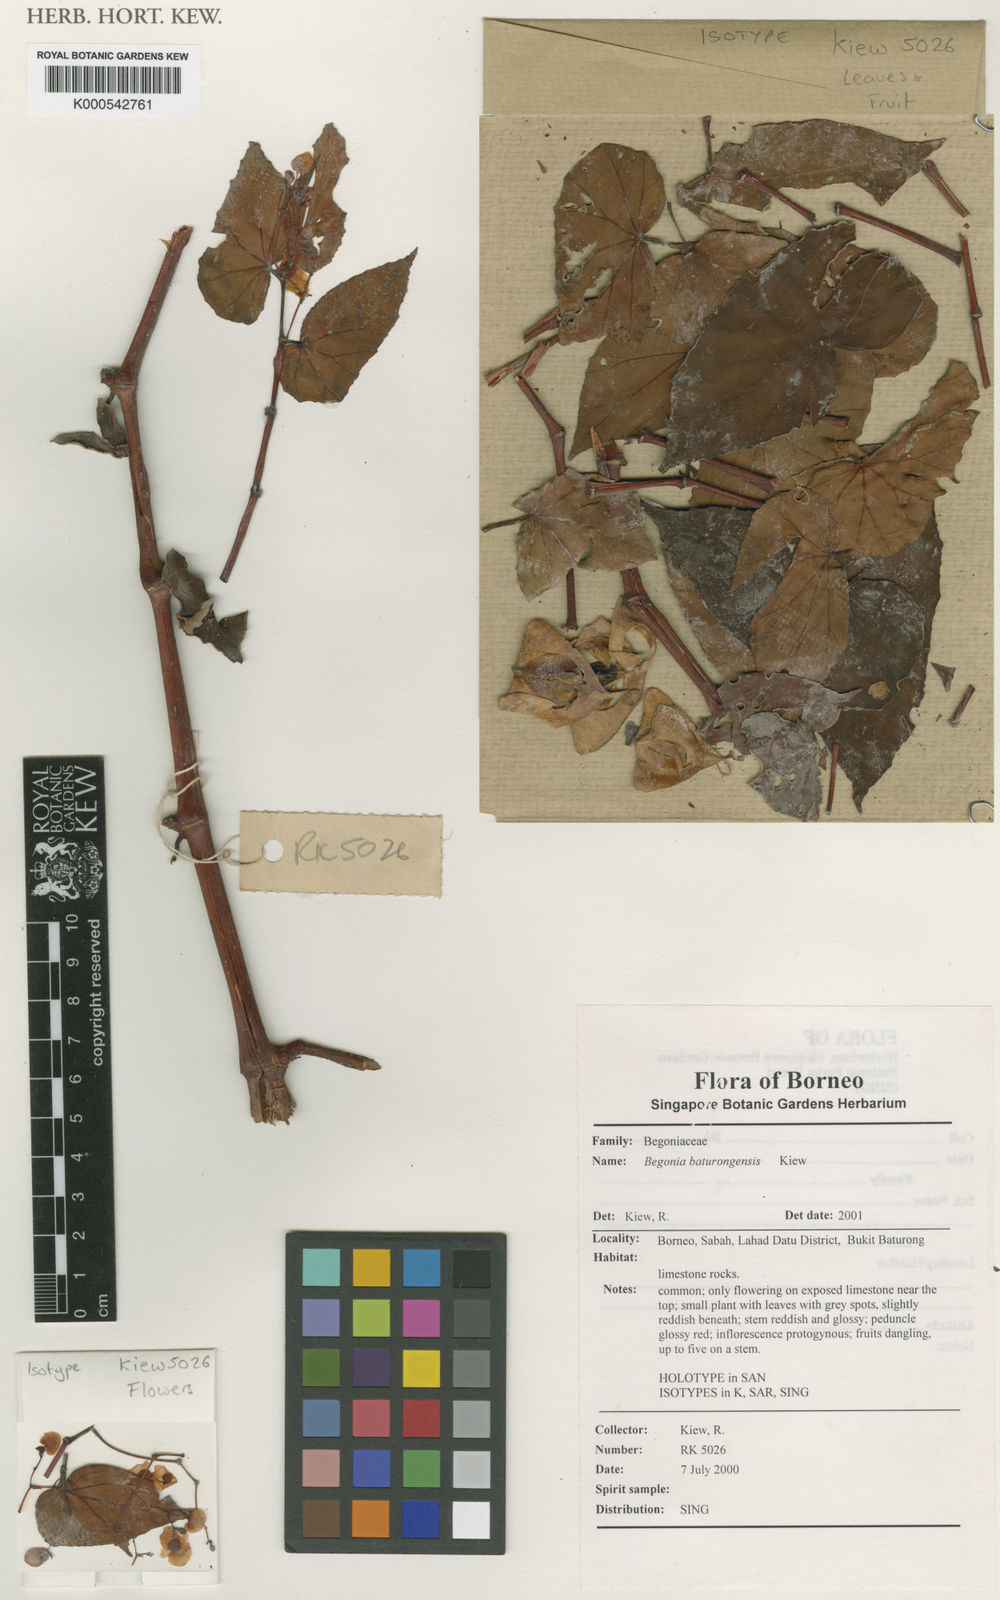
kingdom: Plantae
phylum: Tracheophyta
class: Magnoliopsida
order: Cucurbitales
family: Begoniaceae
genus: Begonia
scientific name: Begonia baturongensis
